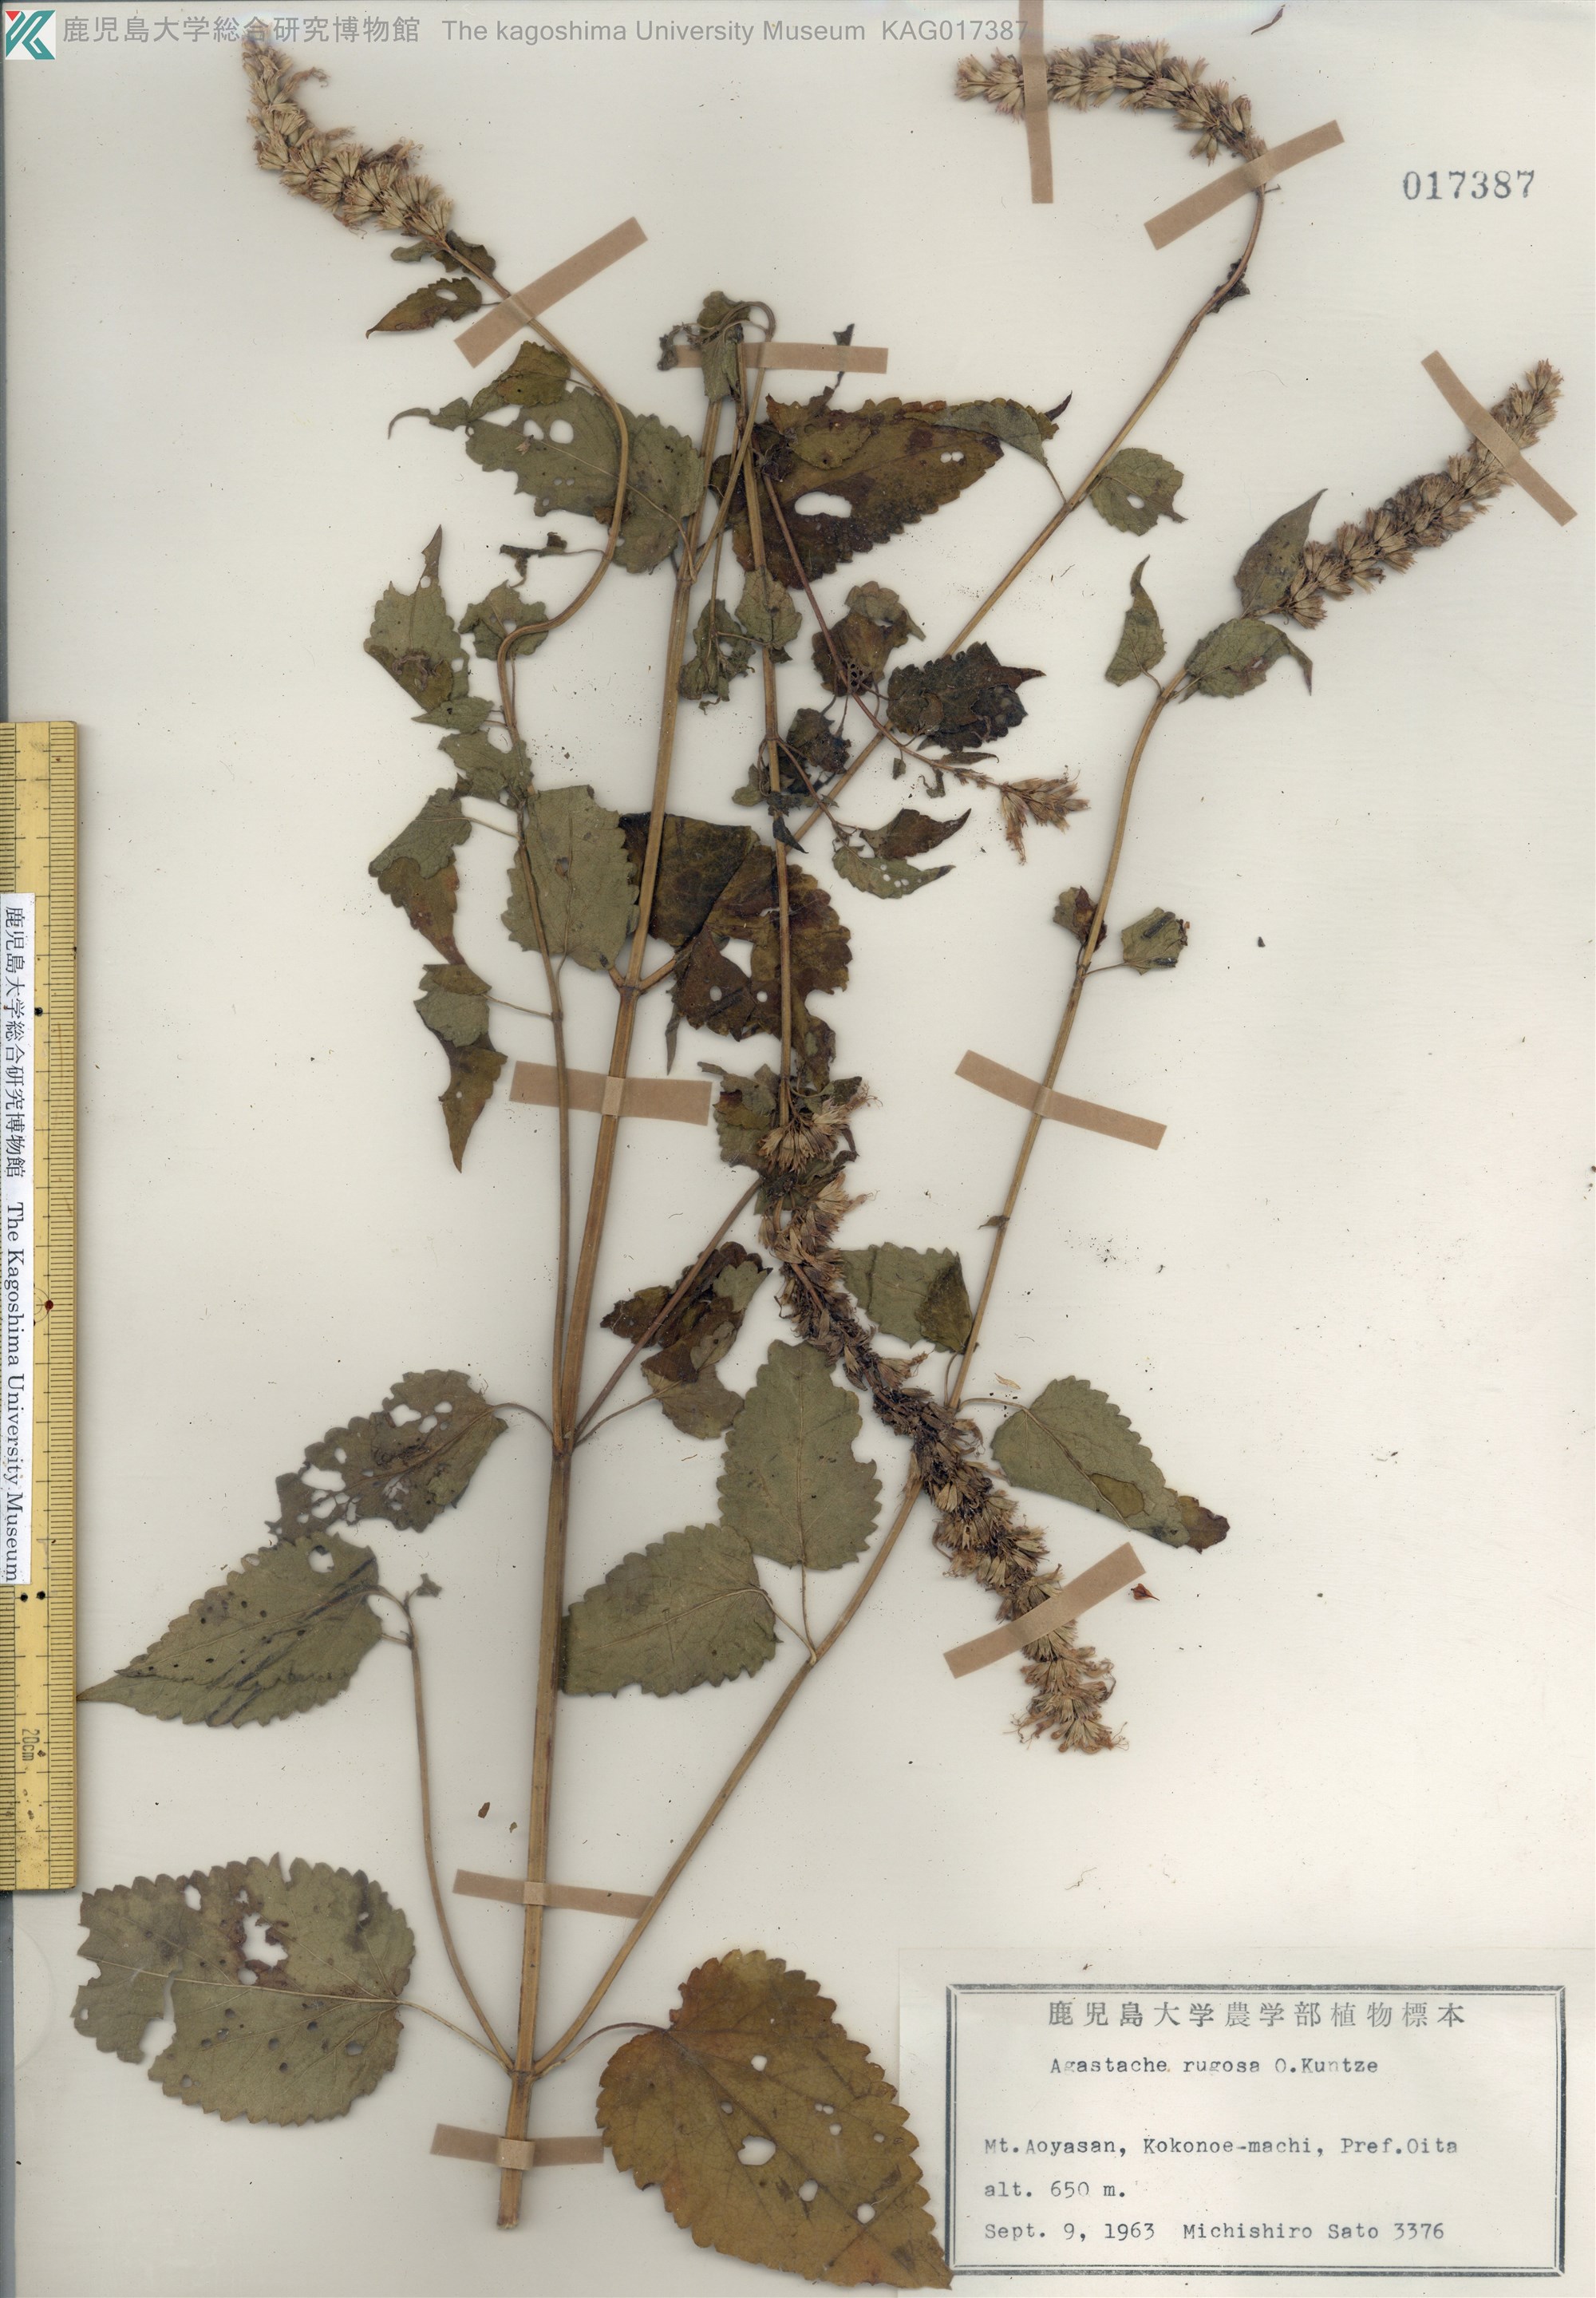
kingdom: Plantae
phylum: Tracheophyta
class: Magnoliopsida
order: Lamiales
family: Lamiaceae
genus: Agastache
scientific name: Agastache rugosa
